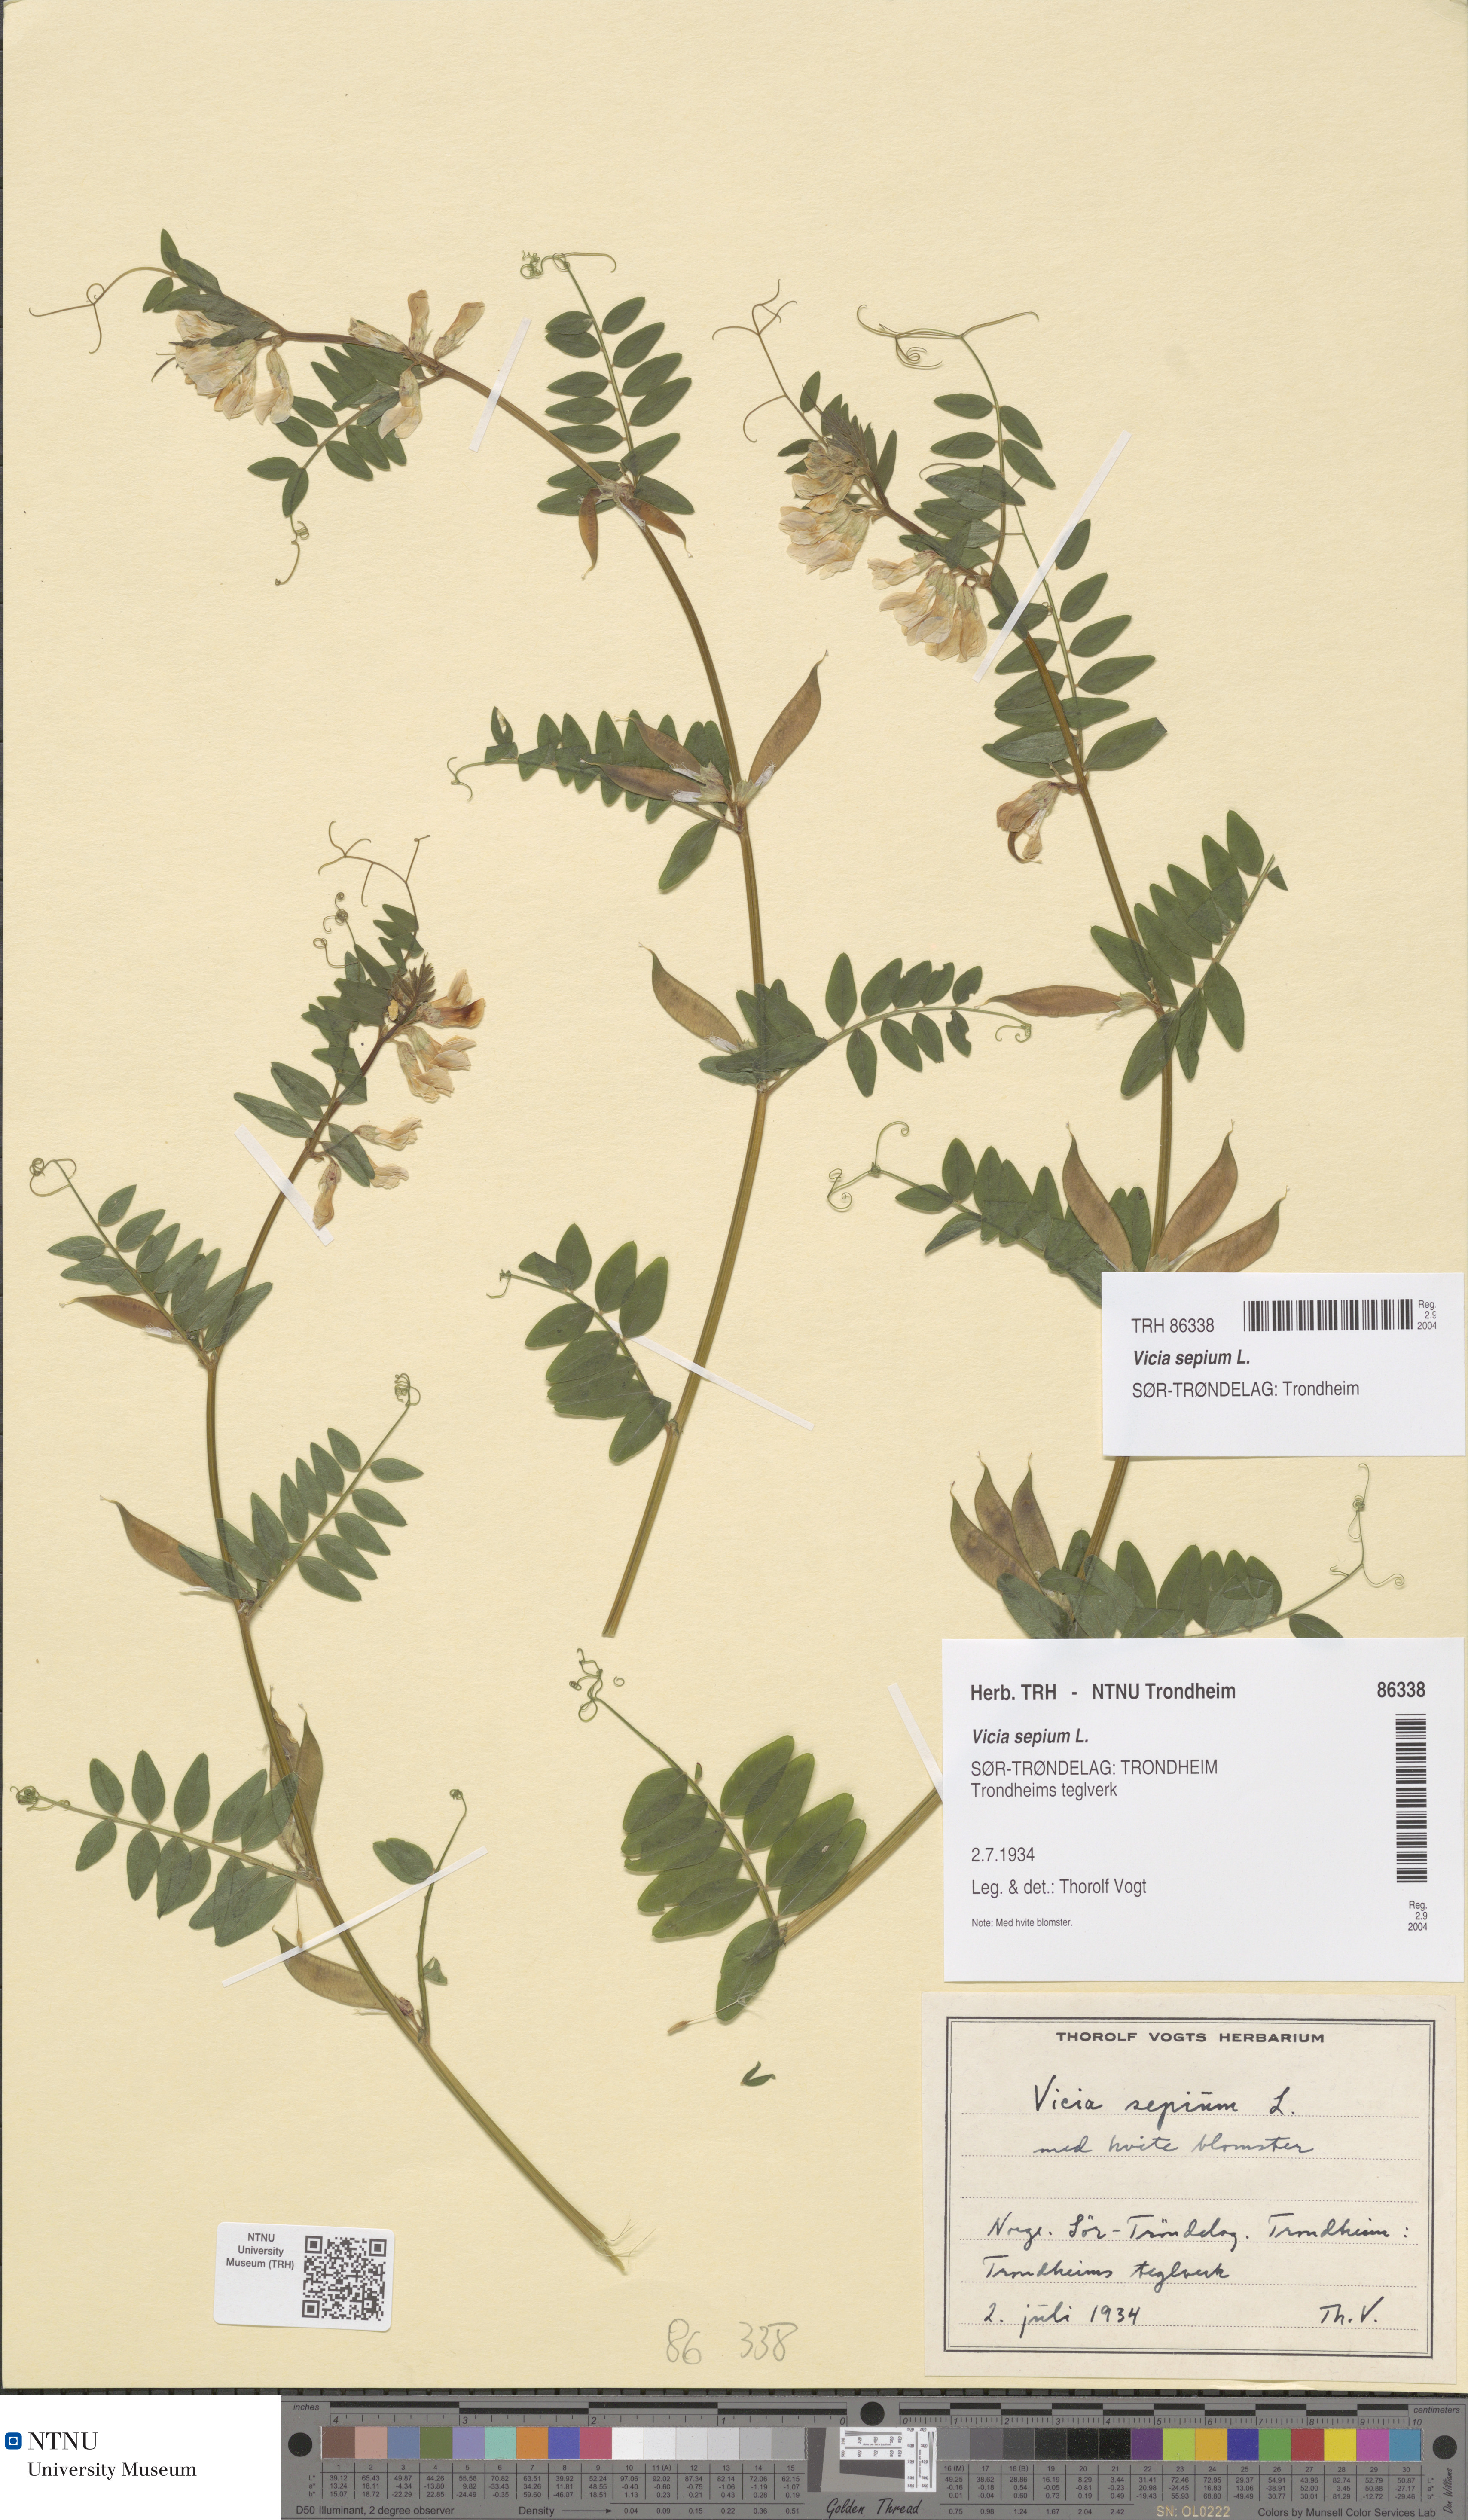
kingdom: Plantae
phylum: Tracheophyta
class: Magnoliopsida
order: Fabales
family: Fabaceae
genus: Vicia
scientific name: Vicia sepium
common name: Bush vetch
